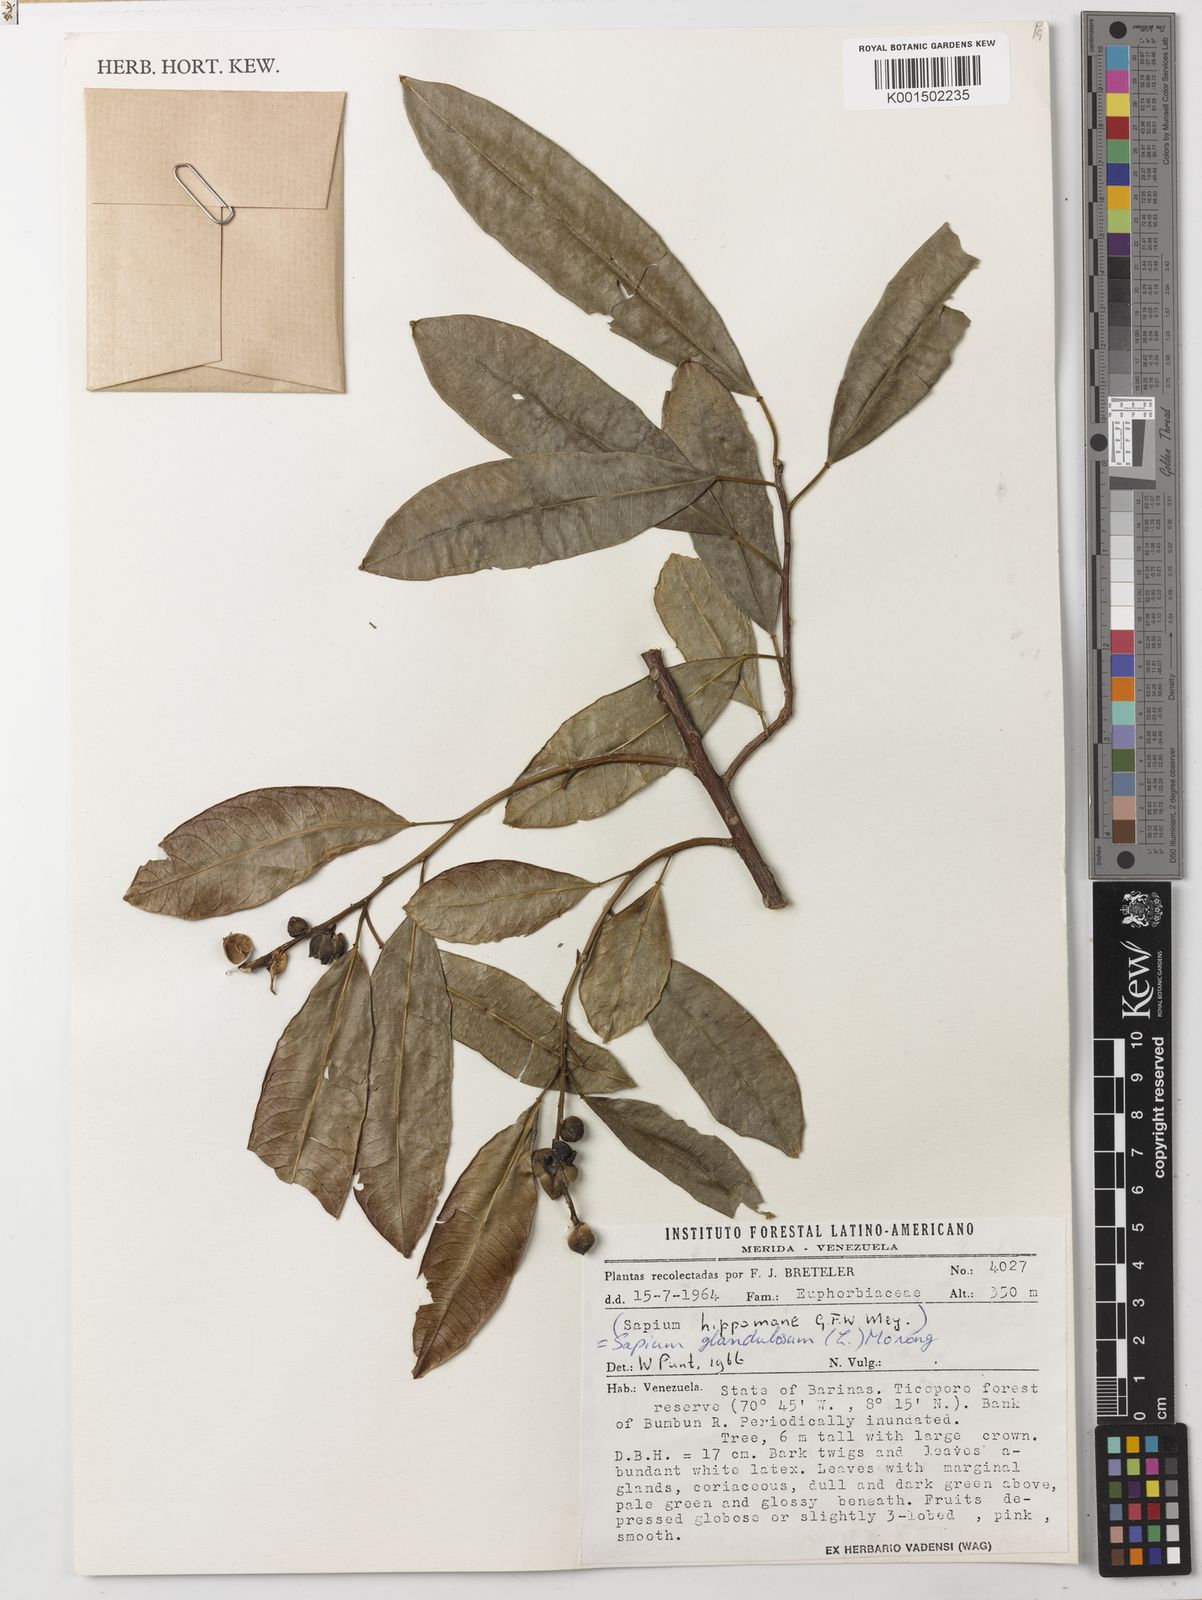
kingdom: Plantae
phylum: Tracheophyta
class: Magnoliopsida
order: Malpighiales
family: Euphorbiaceae
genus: Sapium
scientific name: Sapium glandulosum
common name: Milktree
